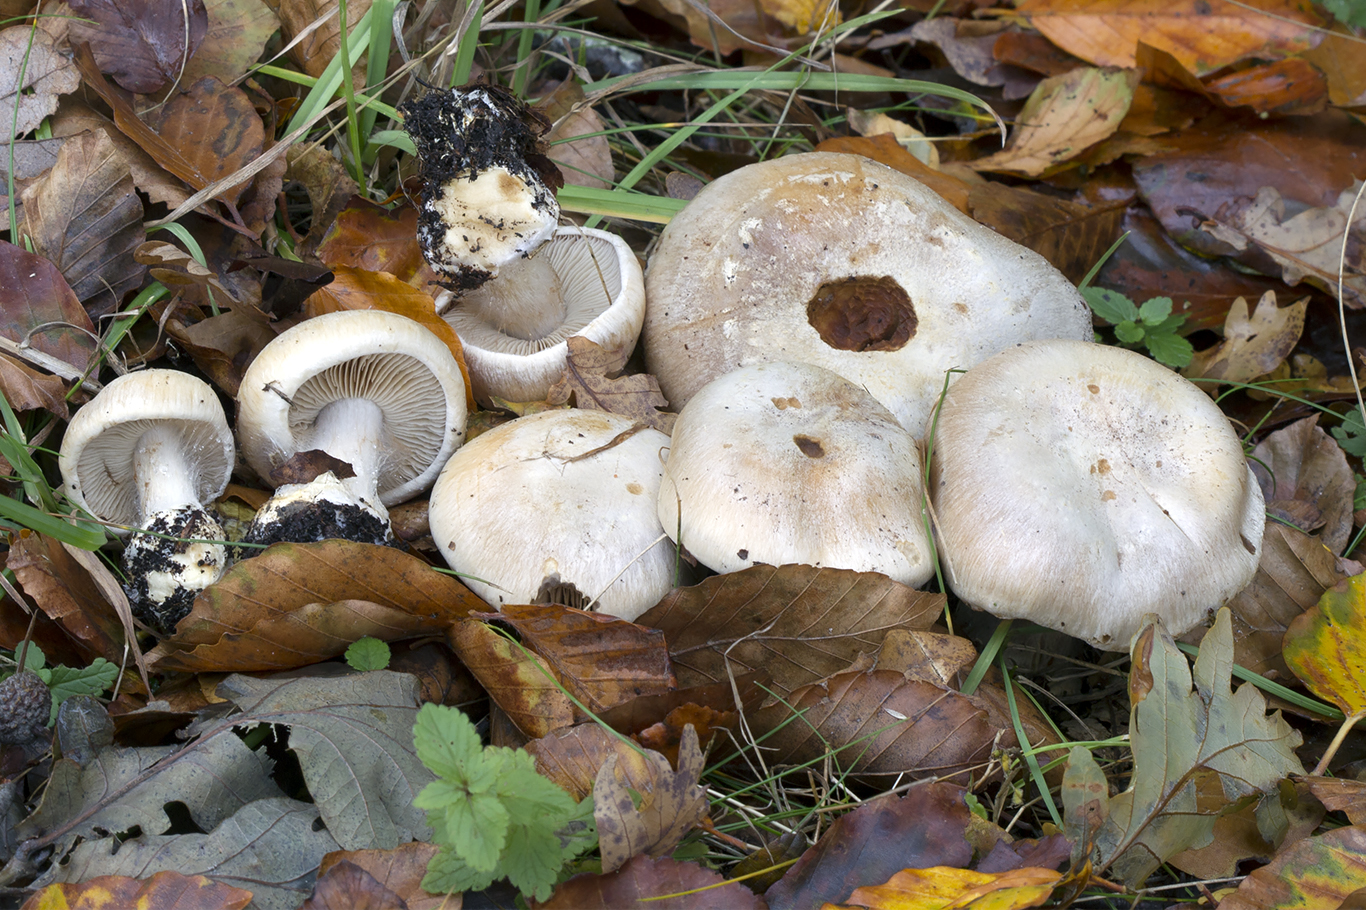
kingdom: Fungi
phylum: Basidiomycota
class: Agaricomycetes
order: Agaricales
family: Cortinariaceae
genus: Cortinarius
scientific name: Cortinarius foetens
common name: stribet slørhat
